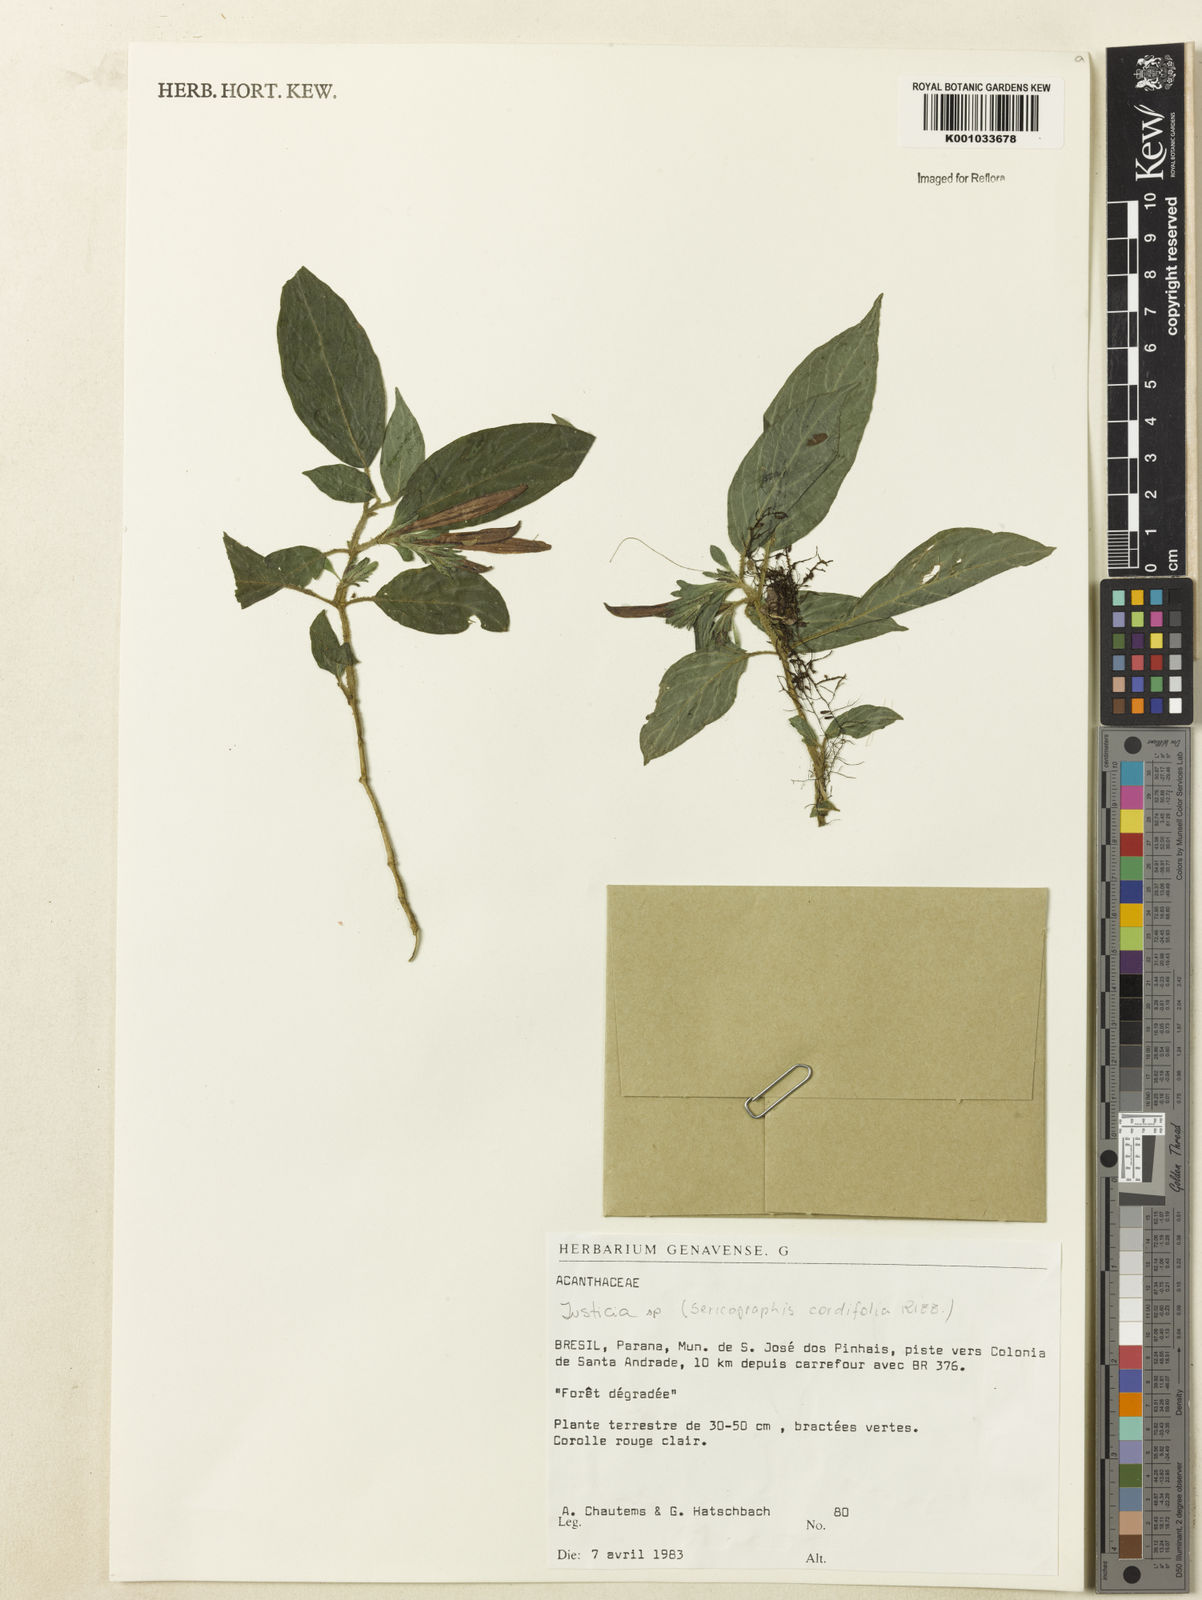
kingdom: Plantae
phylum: Tracheophyta
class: Magnoliopsida
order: Lamiales
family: Acanthaceae
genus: Justicia
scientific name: Justicia
